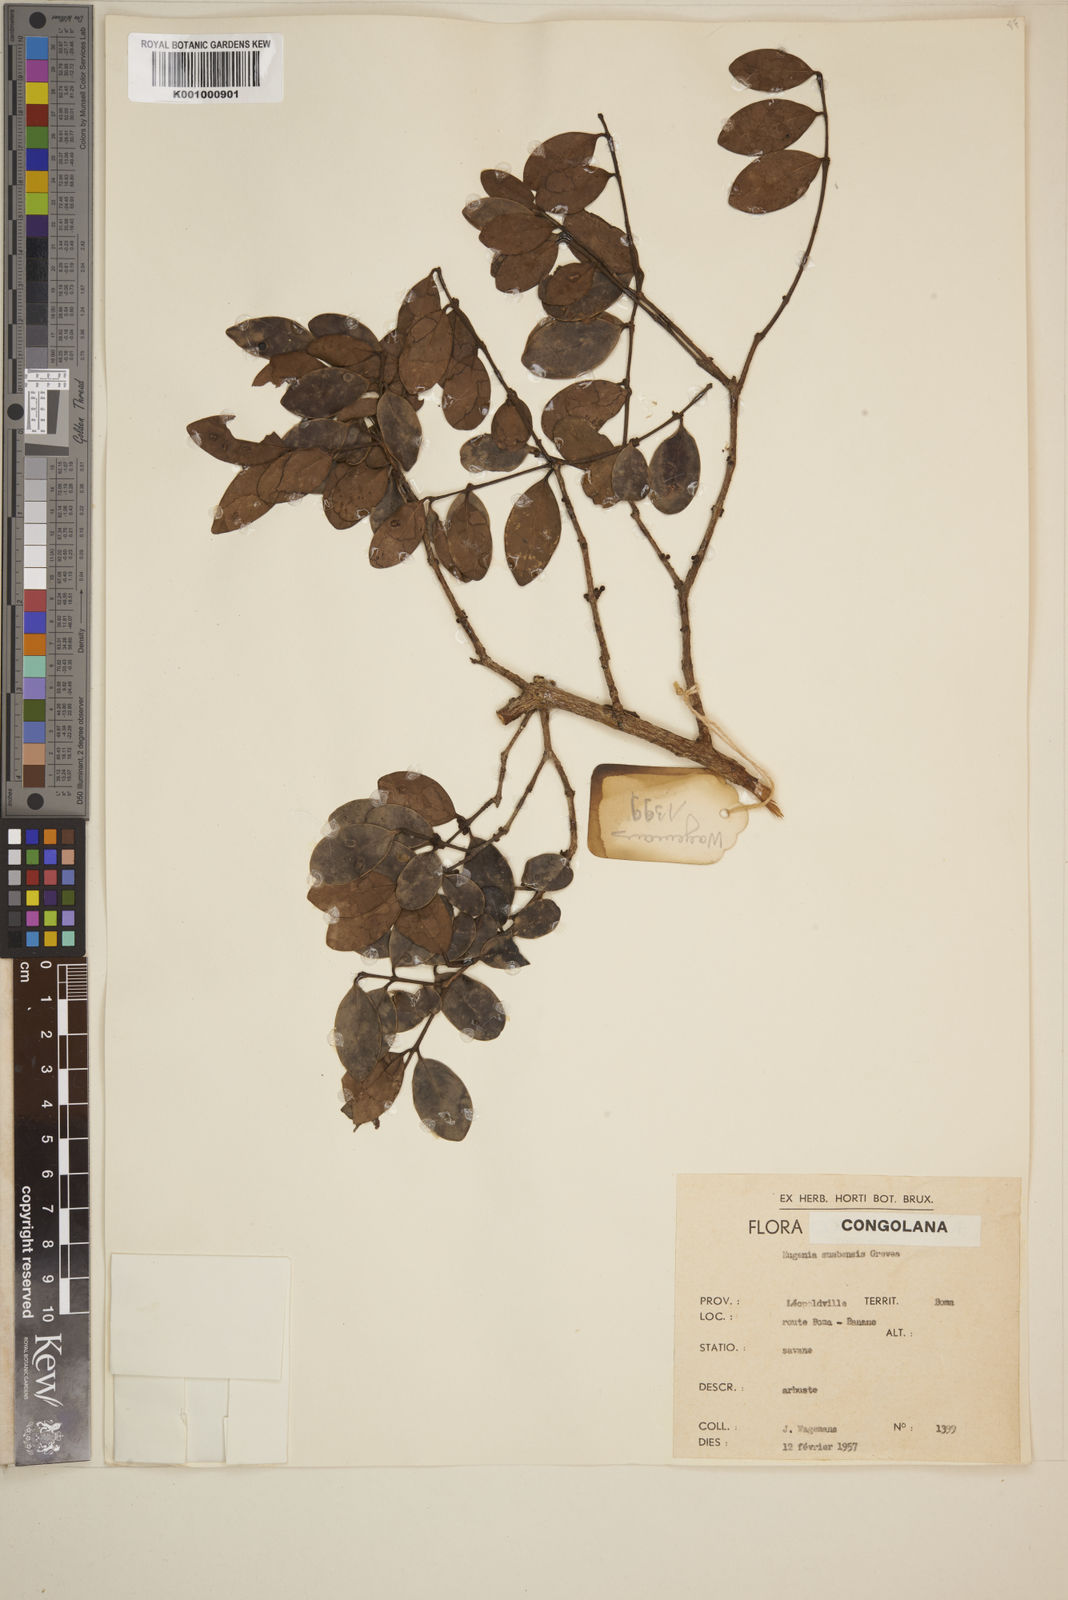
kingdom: Plantae
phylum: Tracheophyta
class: Magnoliopsida
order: Myrtales
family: Myrtaceae
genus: Eugenia
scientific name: Eugenia sumbensis
